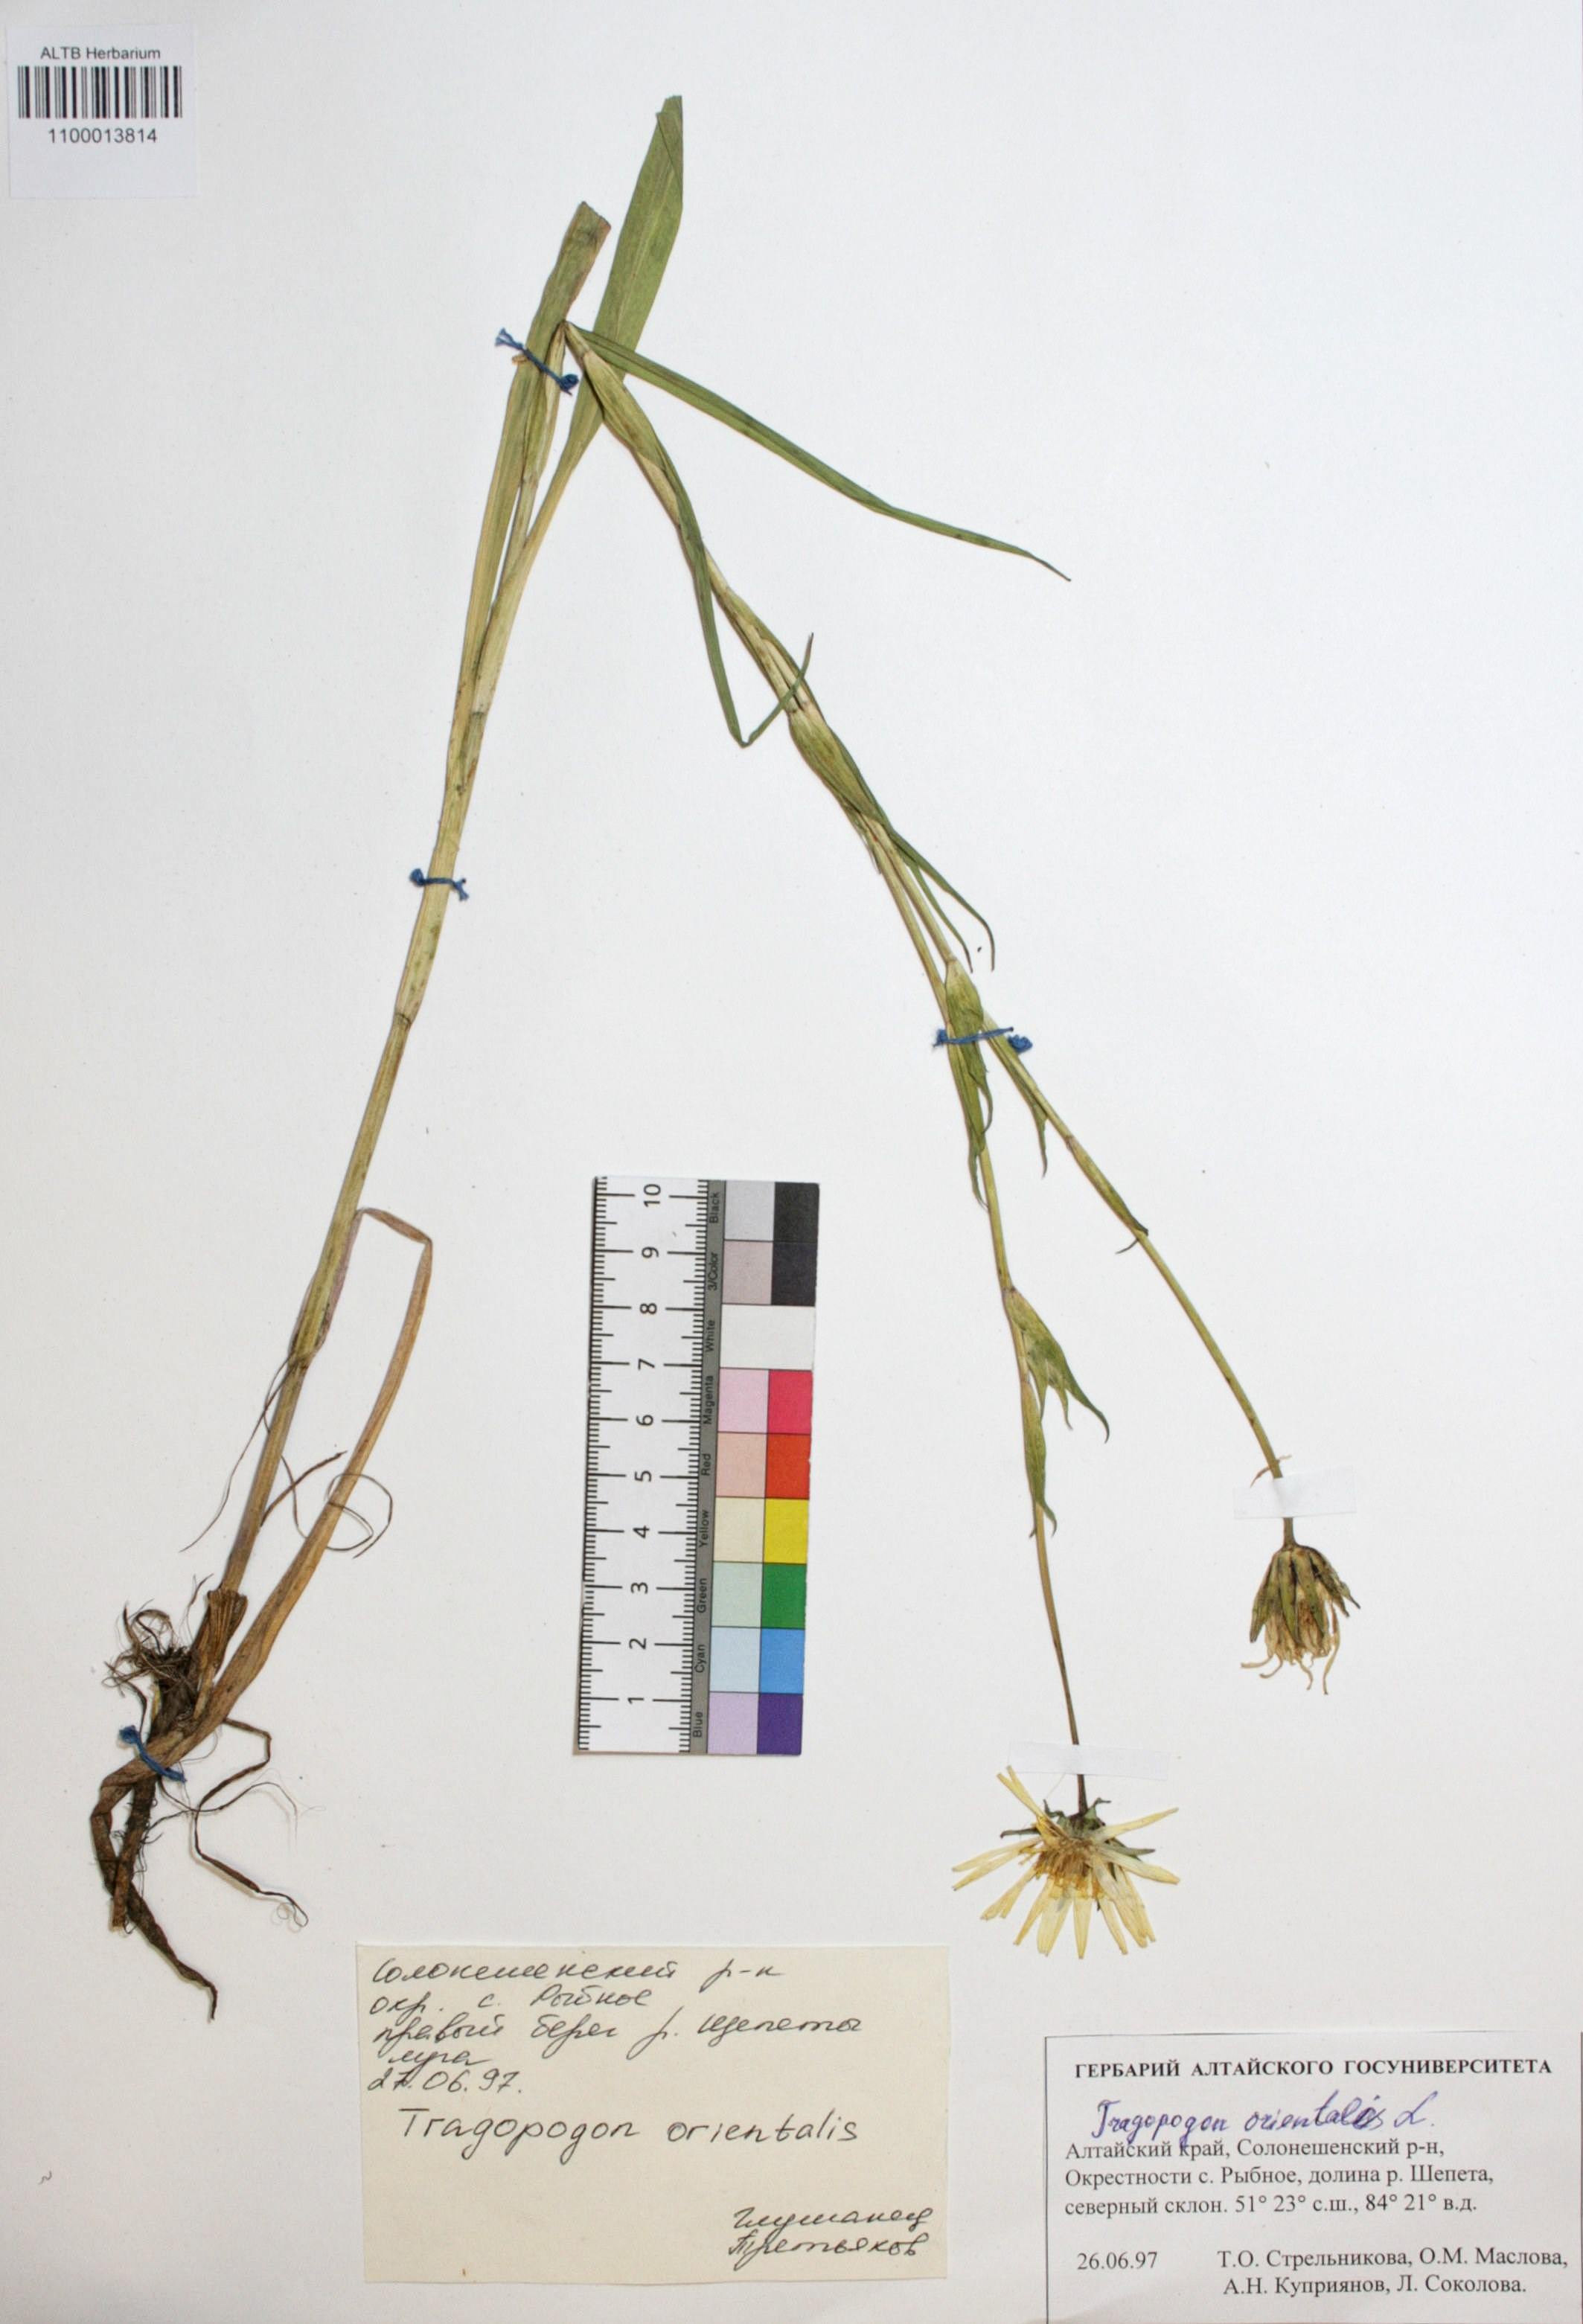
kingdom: Plantae
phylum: Tracheophyta
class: Magnoliopsida
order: Asterales
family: Asteraceae
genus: Tragopogon
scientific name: Tragopogon orientalis
